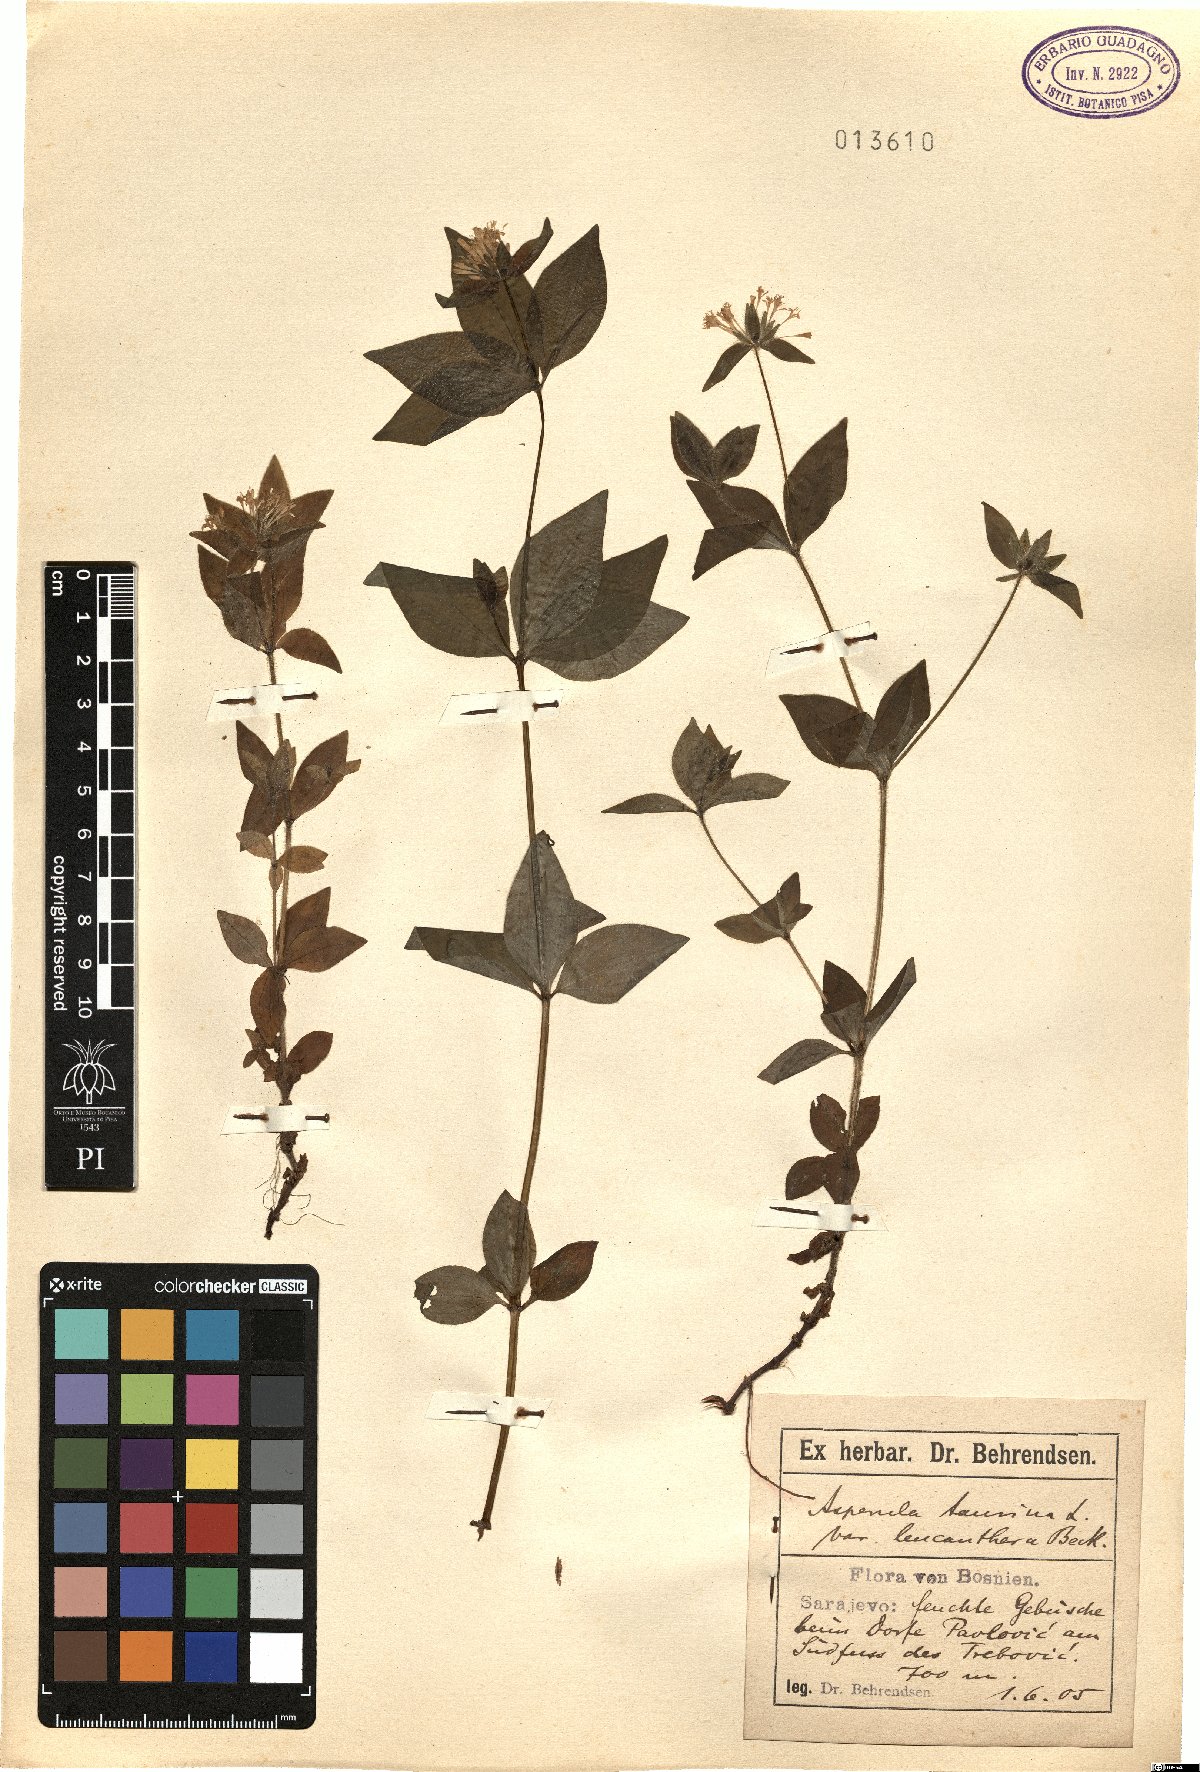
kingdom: Plantae
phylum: Tracheophyta
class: Magnoliopsida
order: Gentianales
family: Rubiaceae
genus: Asperula
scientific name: Asperula taurina
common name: Pink woodruff
